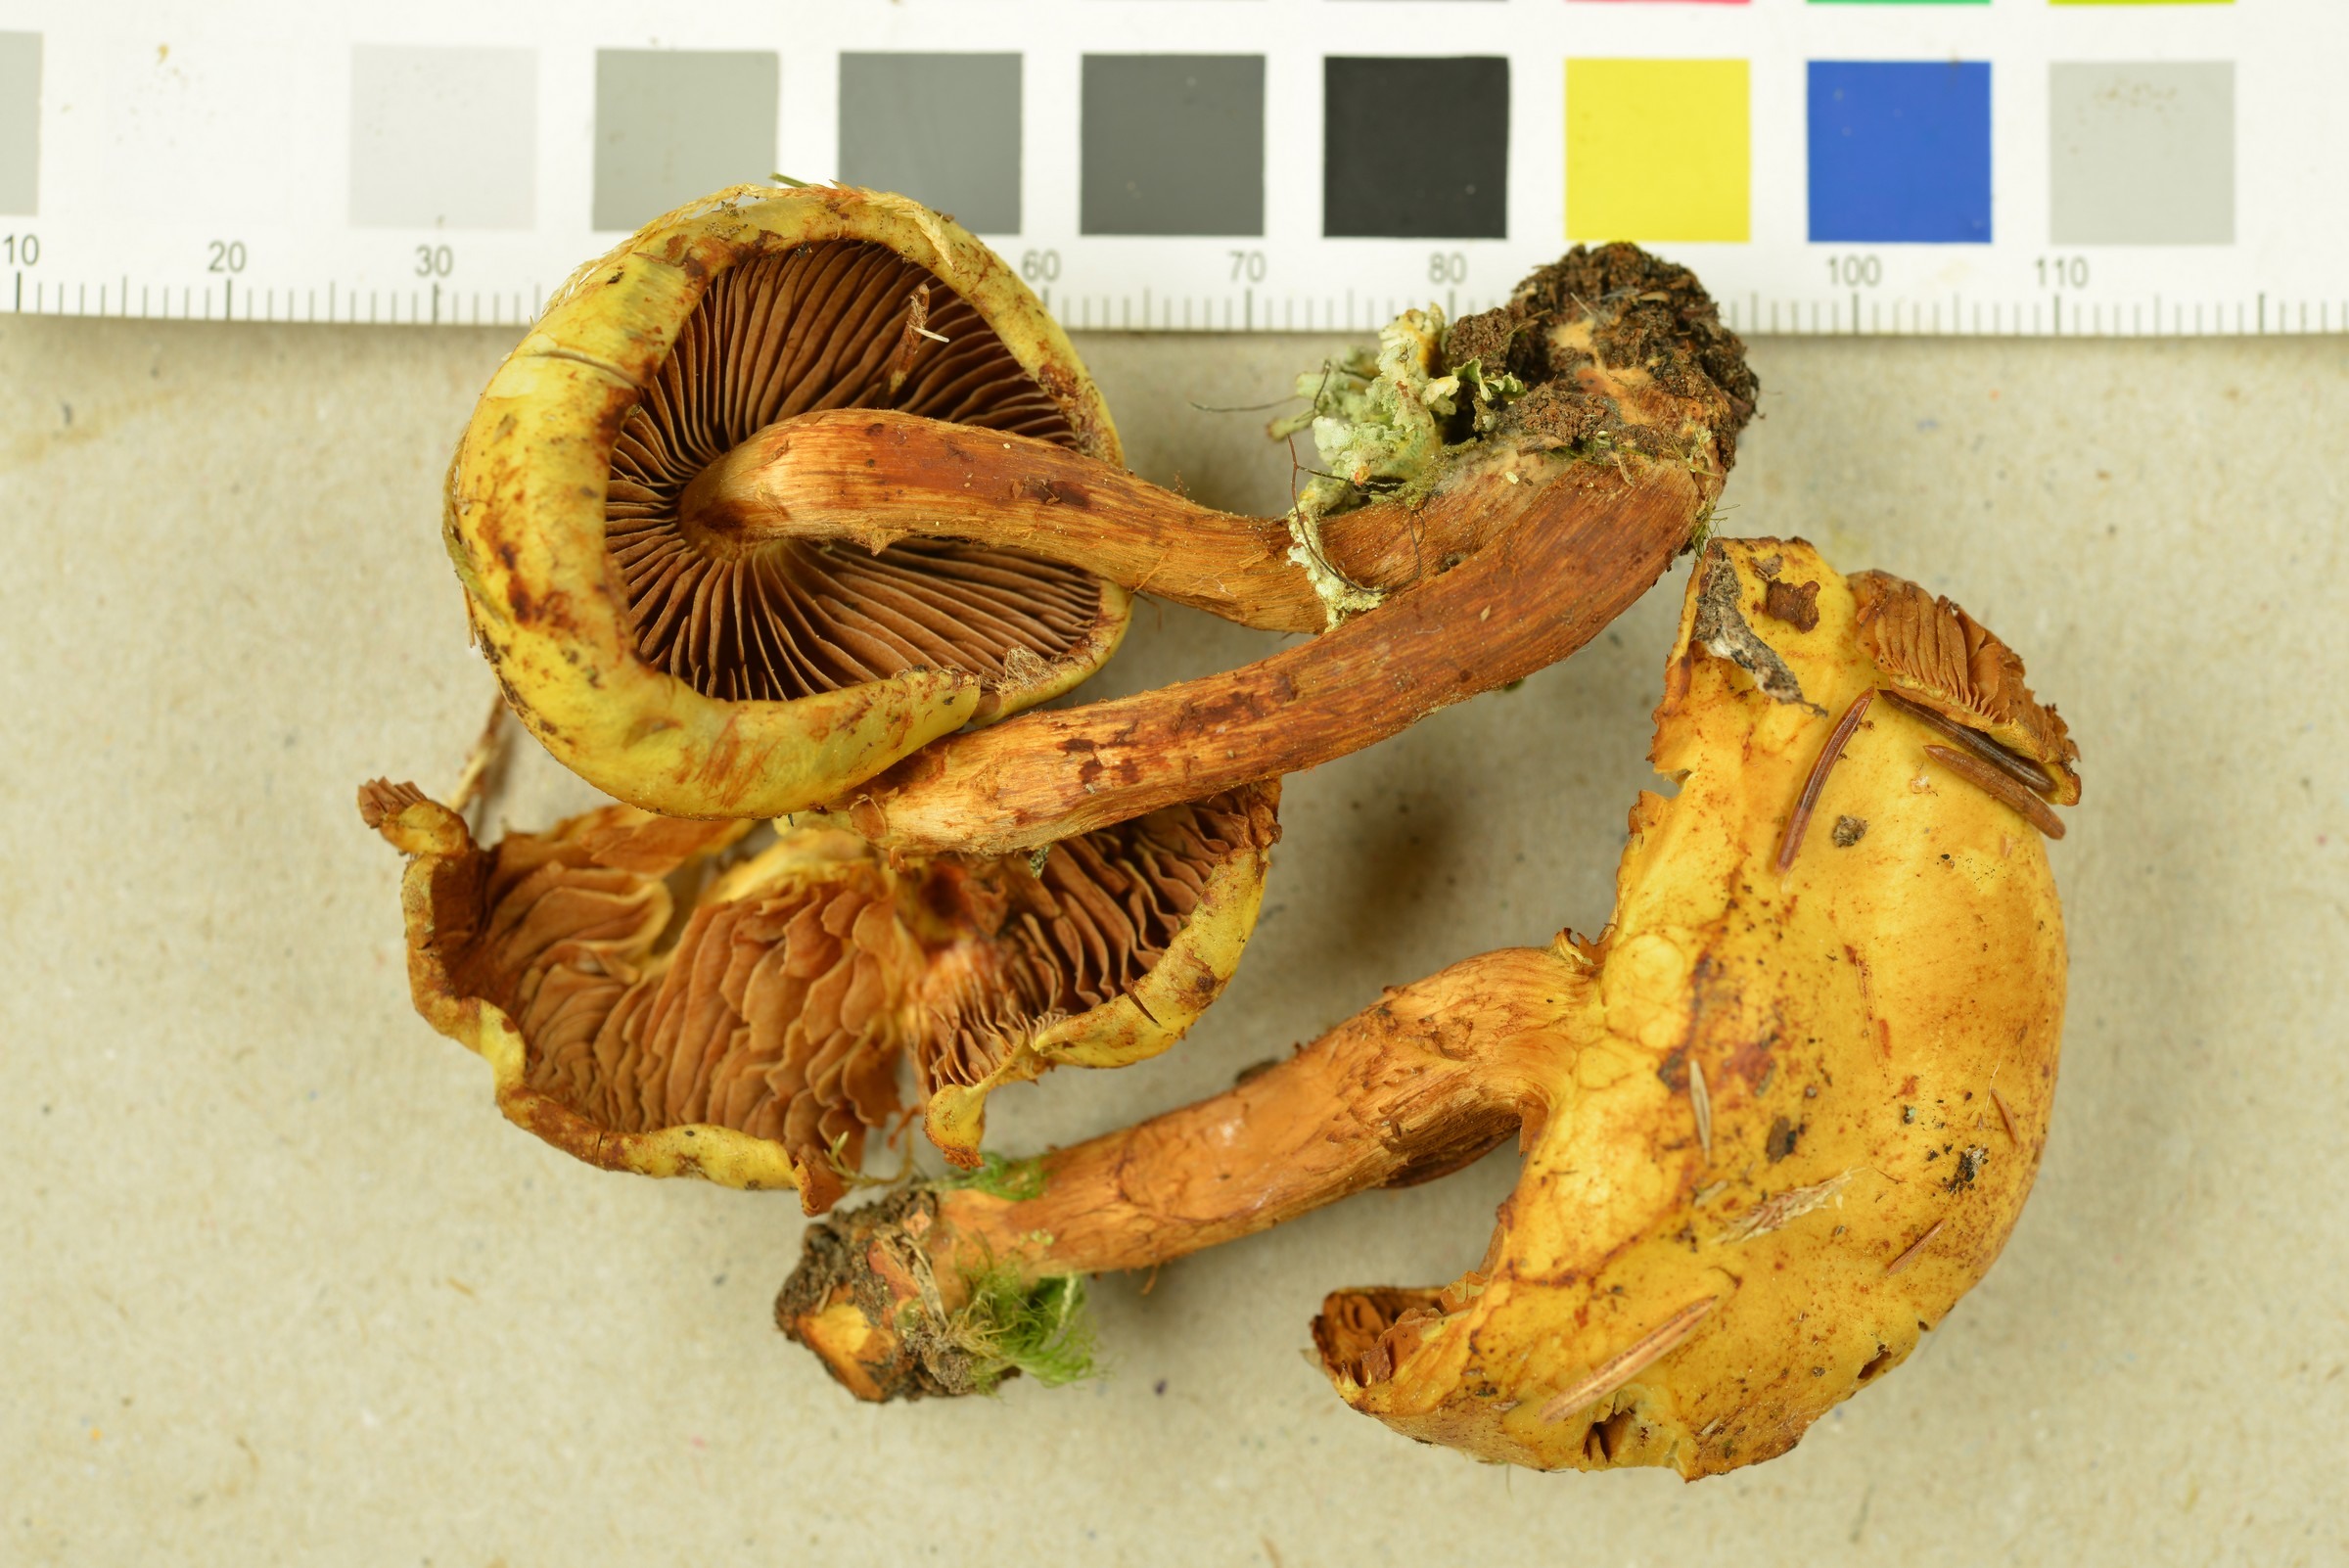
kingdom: Fungi
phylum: Basidiomycota
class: Agaricomycetes
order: Agaricales
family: Hymenogastraceae
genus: Flammula
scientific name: Flammula alnicola
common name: Alder scalycap
